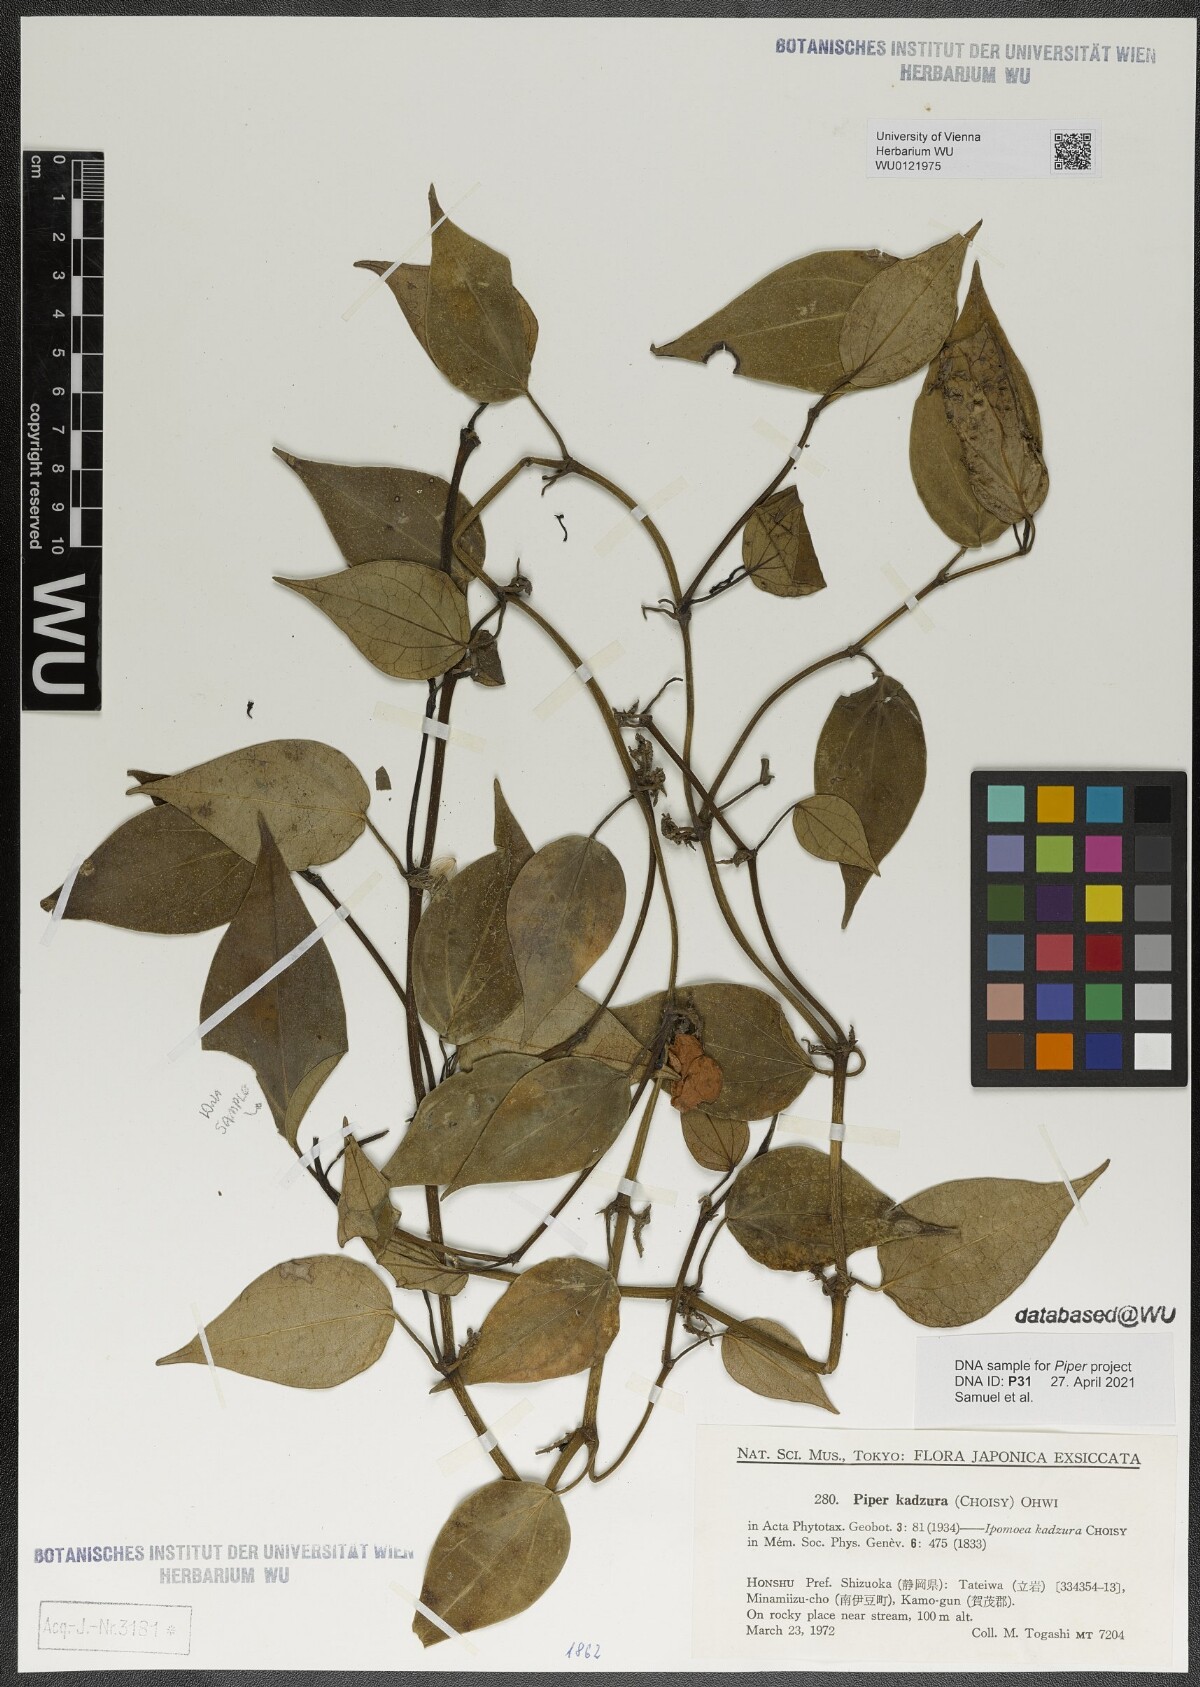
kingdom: Plantae
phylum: Tracheophyta
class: Magnoliopsida
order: Piperales
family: Piperaceae
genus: Piper
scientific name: Piper kadsura
